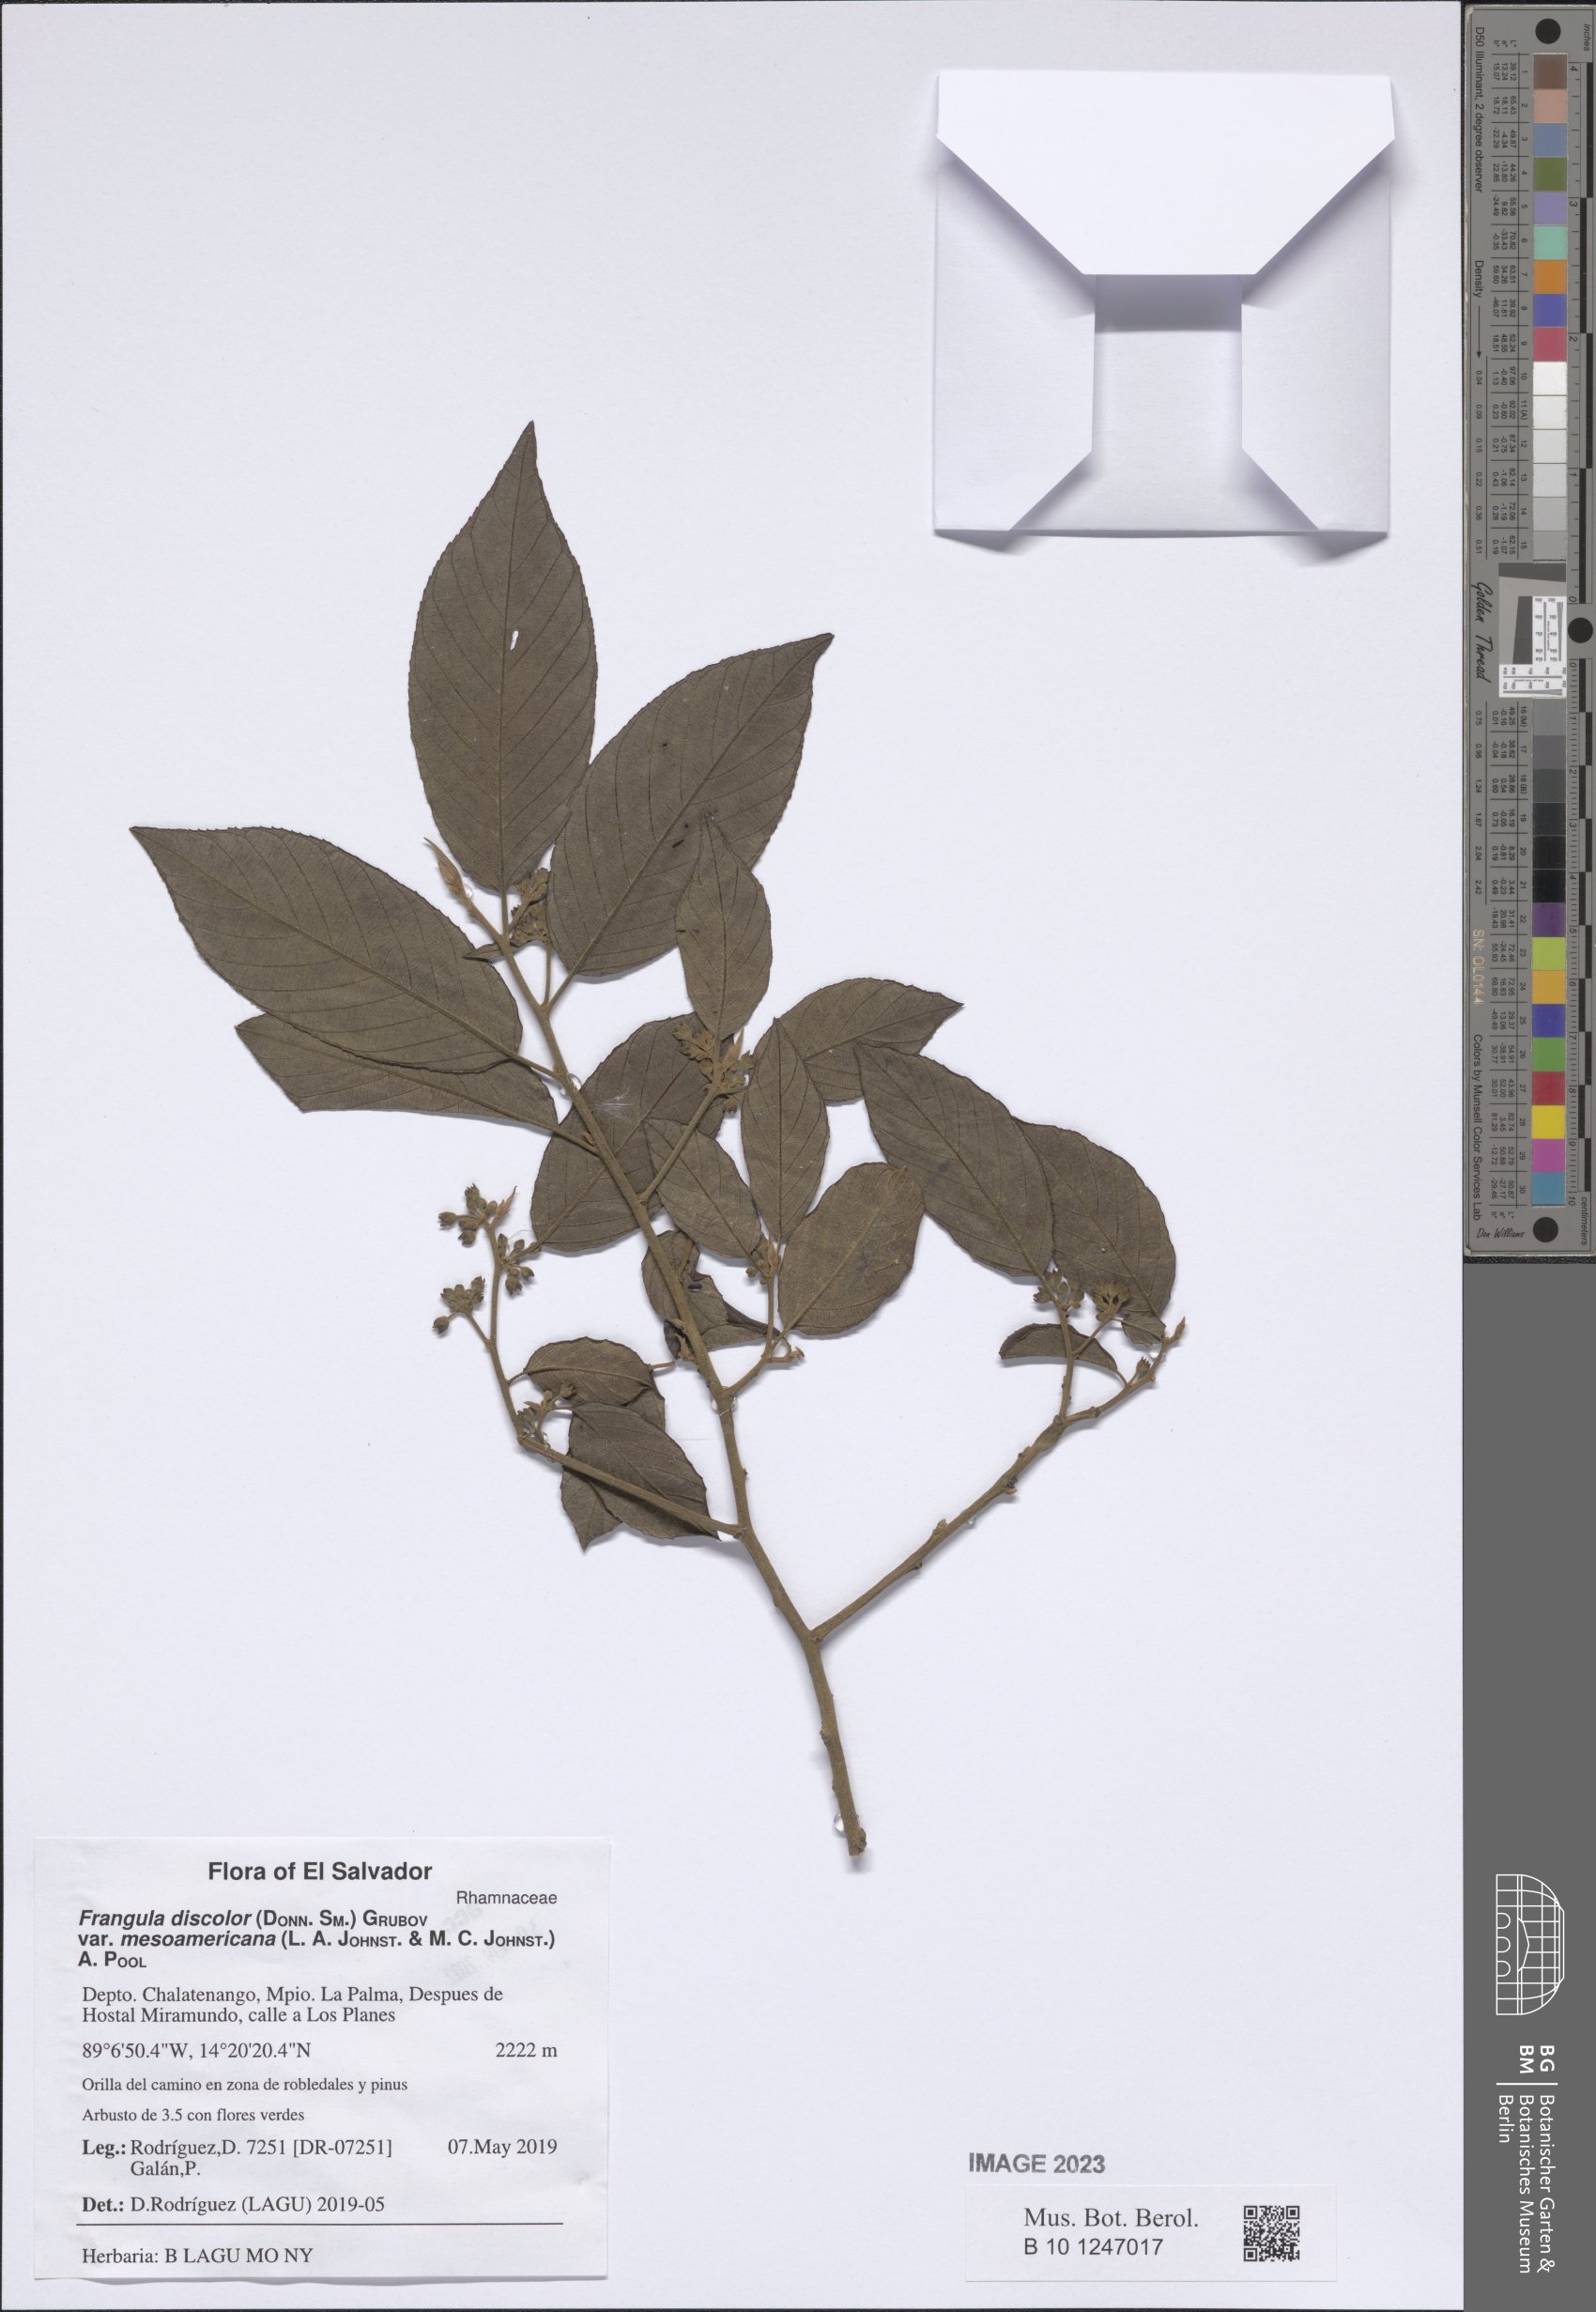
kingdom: Plantae
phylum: Tracheophyta
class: Magnoliopsida
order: Rosales
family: Rhamnaceae
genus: Frangula
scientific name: Frangula discolor
